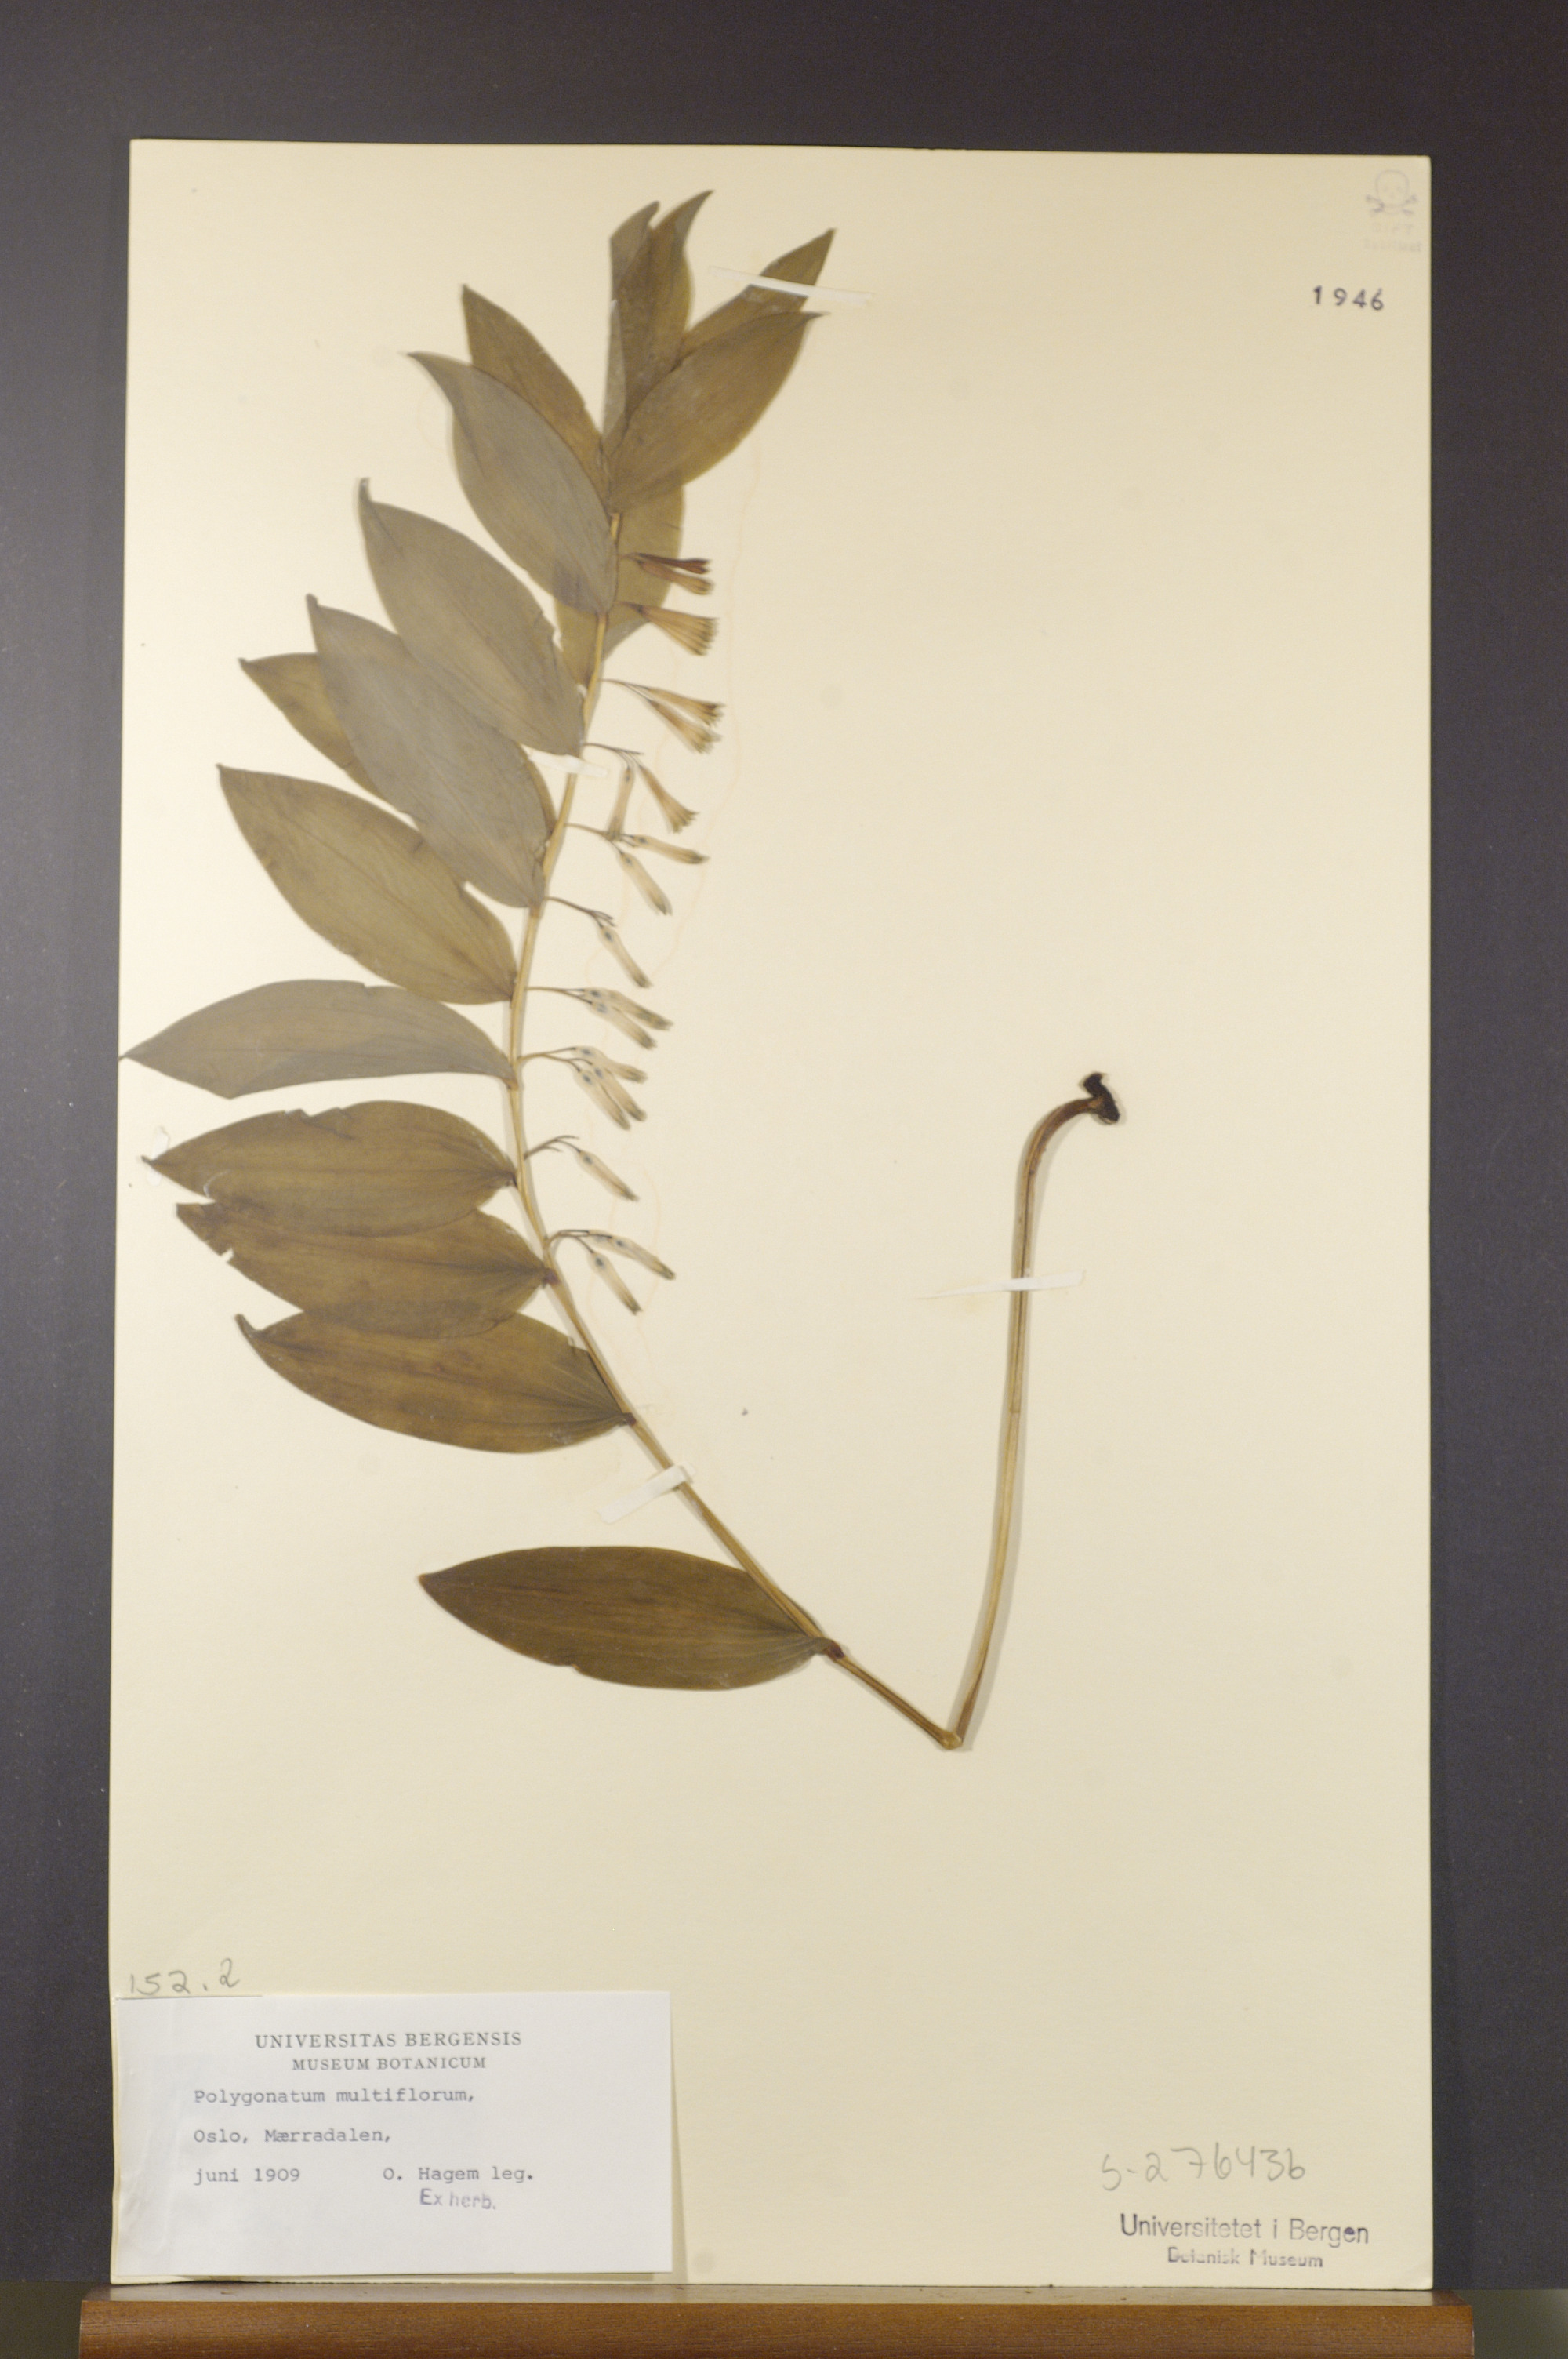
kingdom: Plantae
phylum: Tracheophyta
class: Liliopsida
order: Asparagales
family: Asparagaceae
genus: Polygonatum
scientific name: Polygonatum multiflorum
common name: Solomon's-seal
